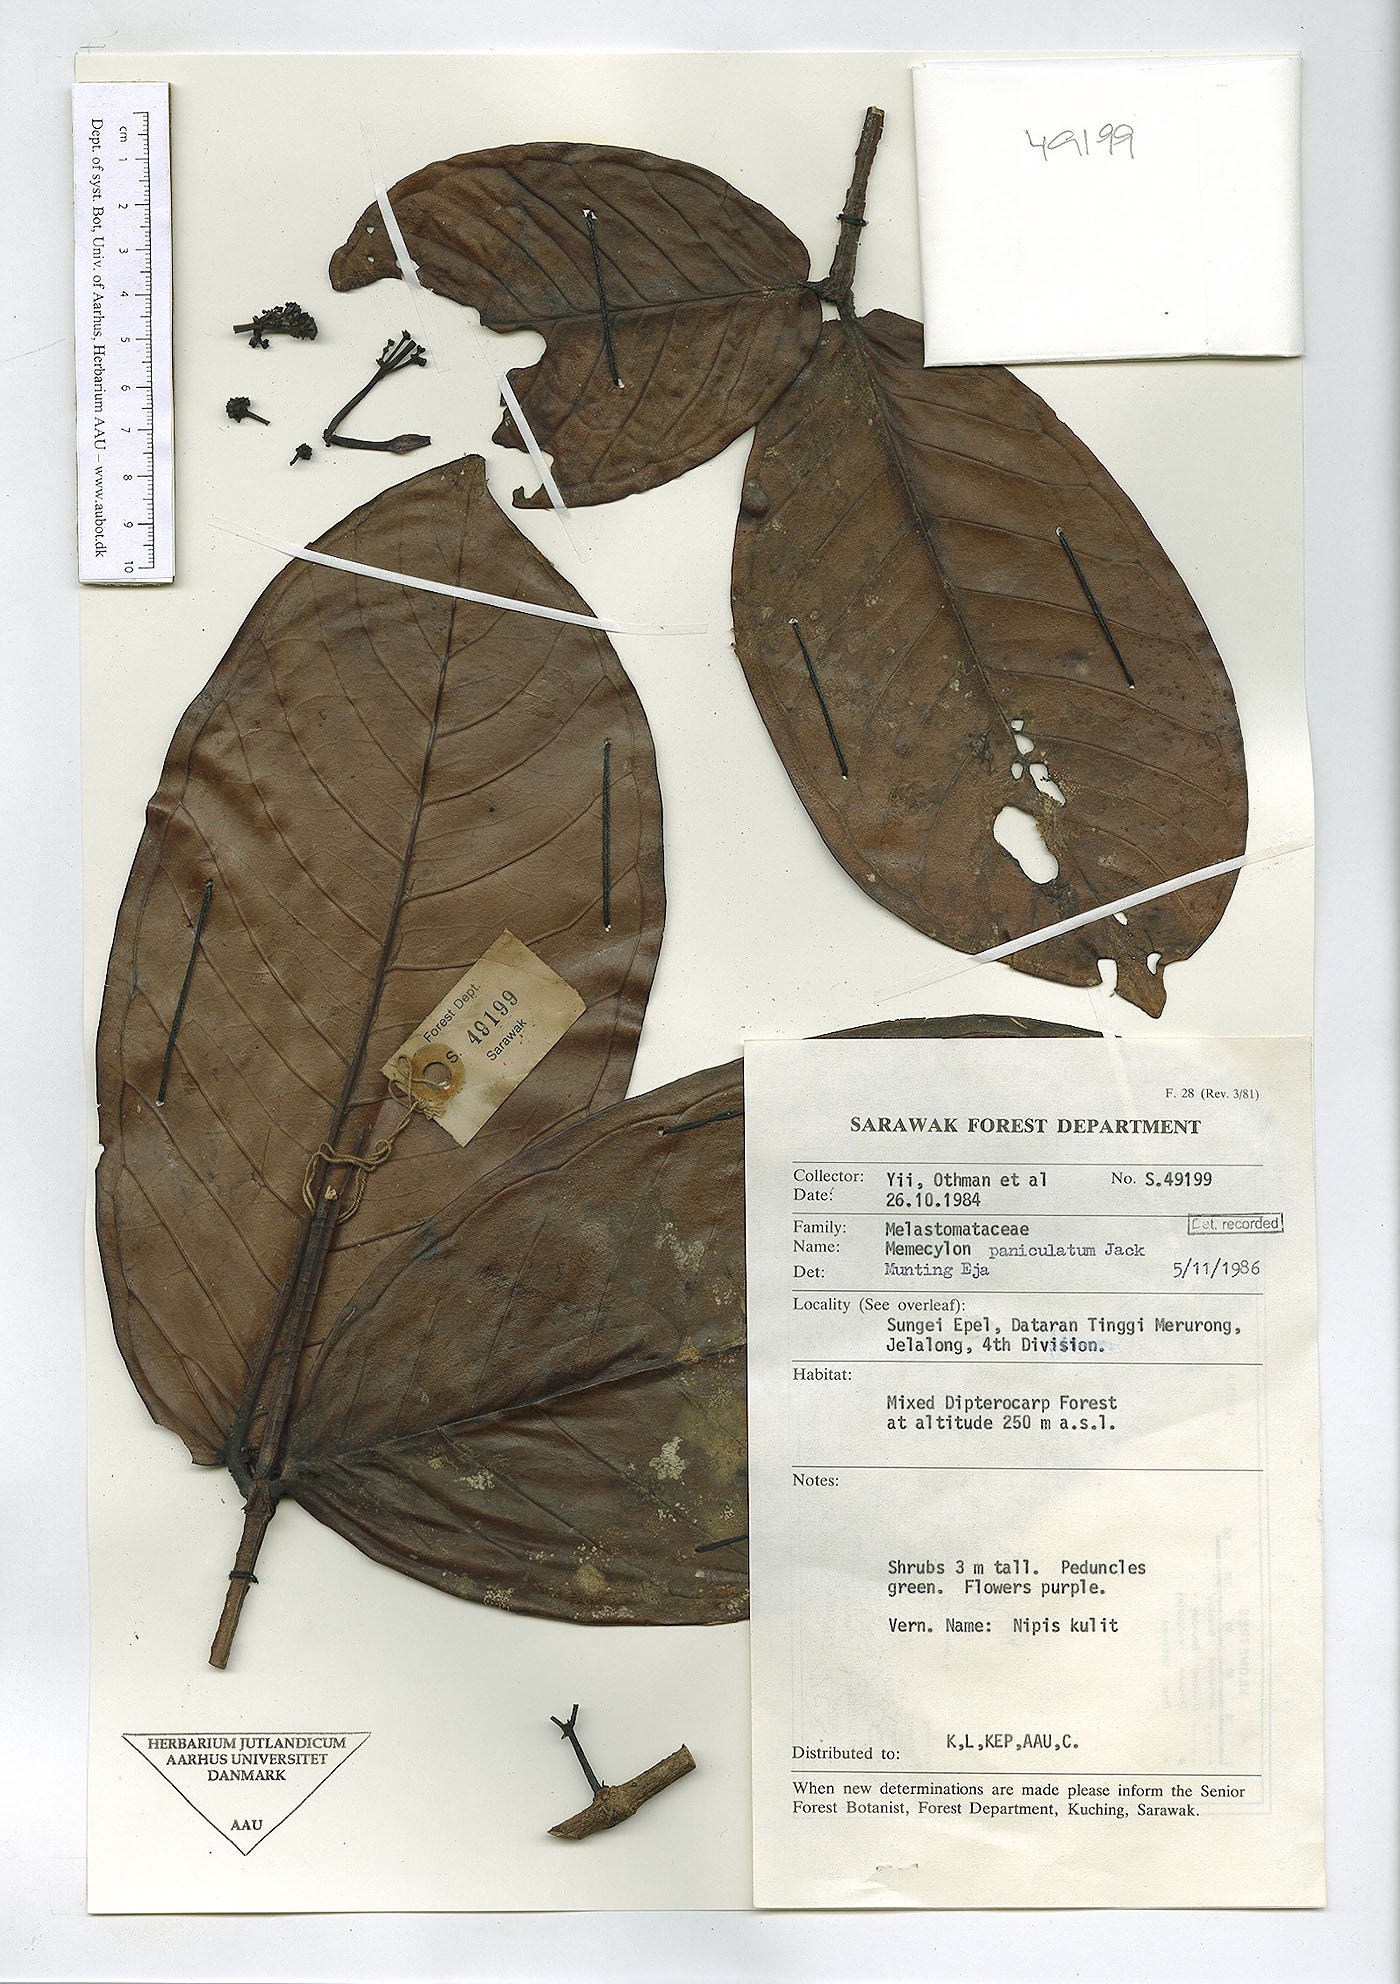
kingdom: Plantae
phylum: Tracheophyta
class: Magnoliopsida
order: Myrtales
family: Melastomataceae
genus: Memecylon
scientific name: Memecylon paniculatum
